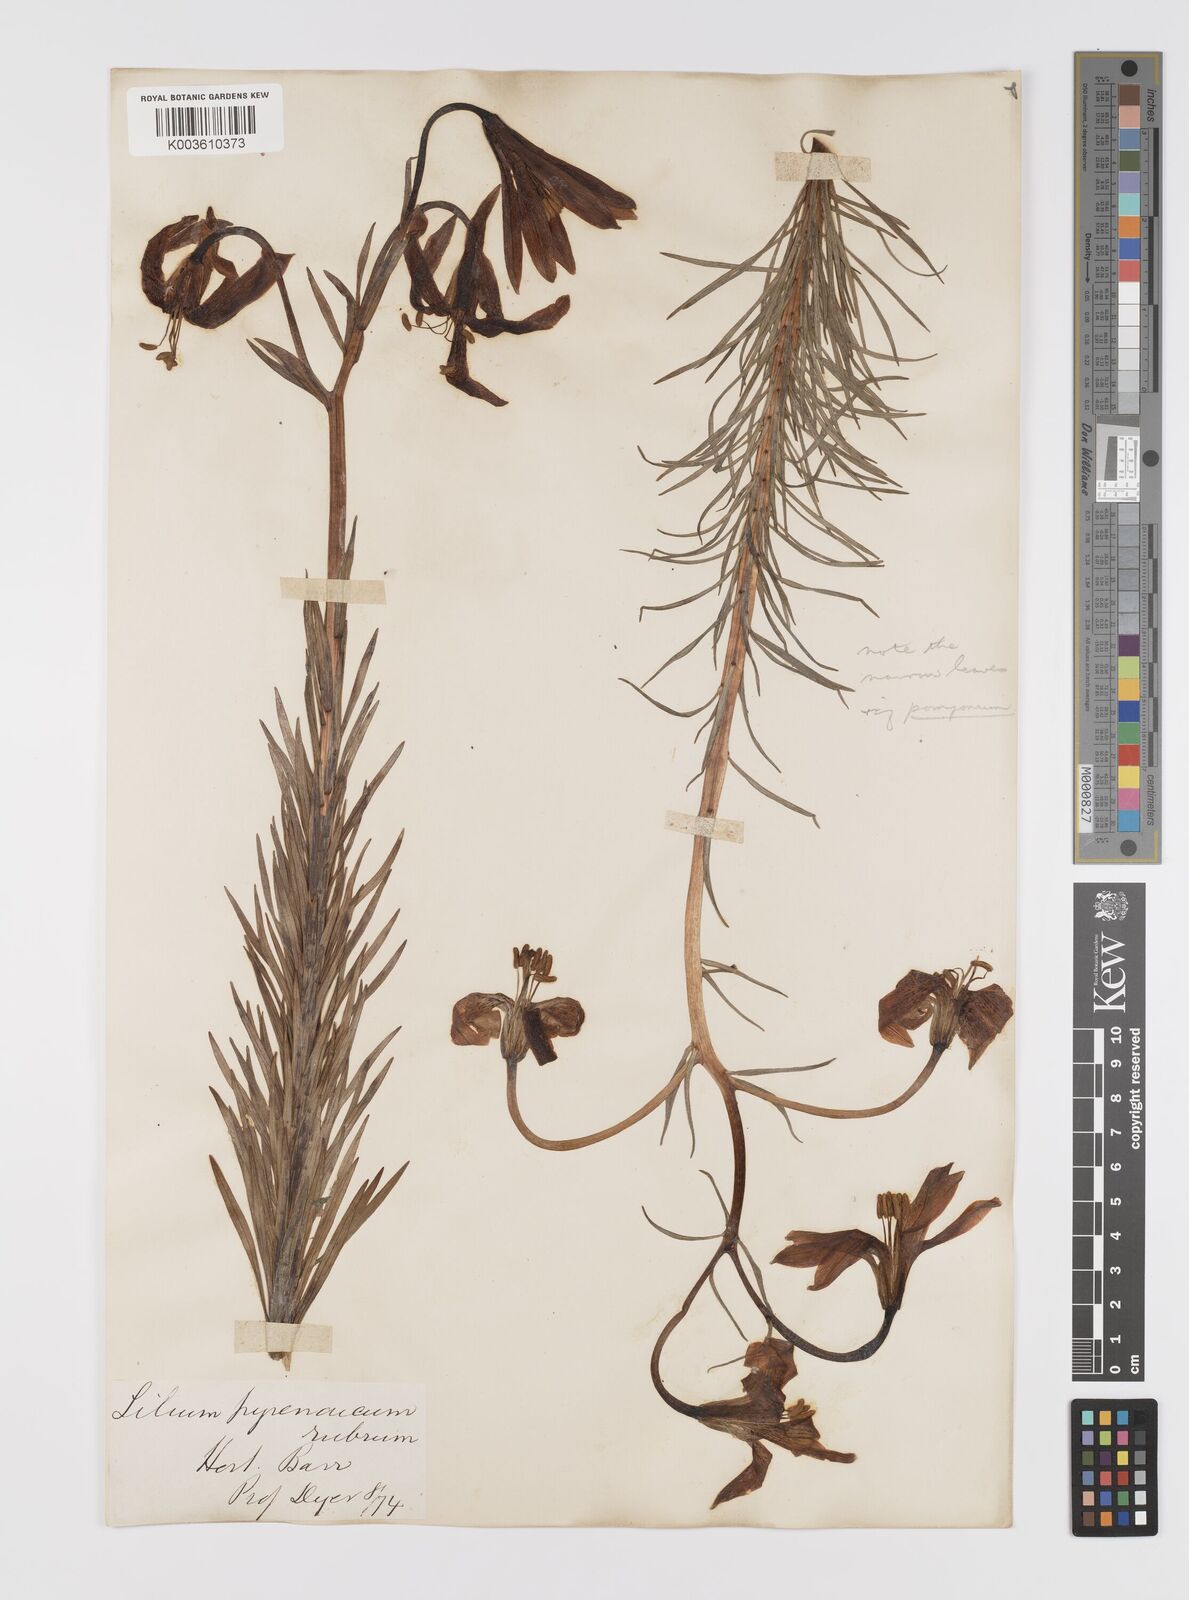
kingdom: Plantae
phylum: Tracheophyta
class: Liliopsida
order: Liliales
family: Liliaceae
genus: Lilium
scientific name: Lilium pyrenaicum
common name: Pyrenean lily
